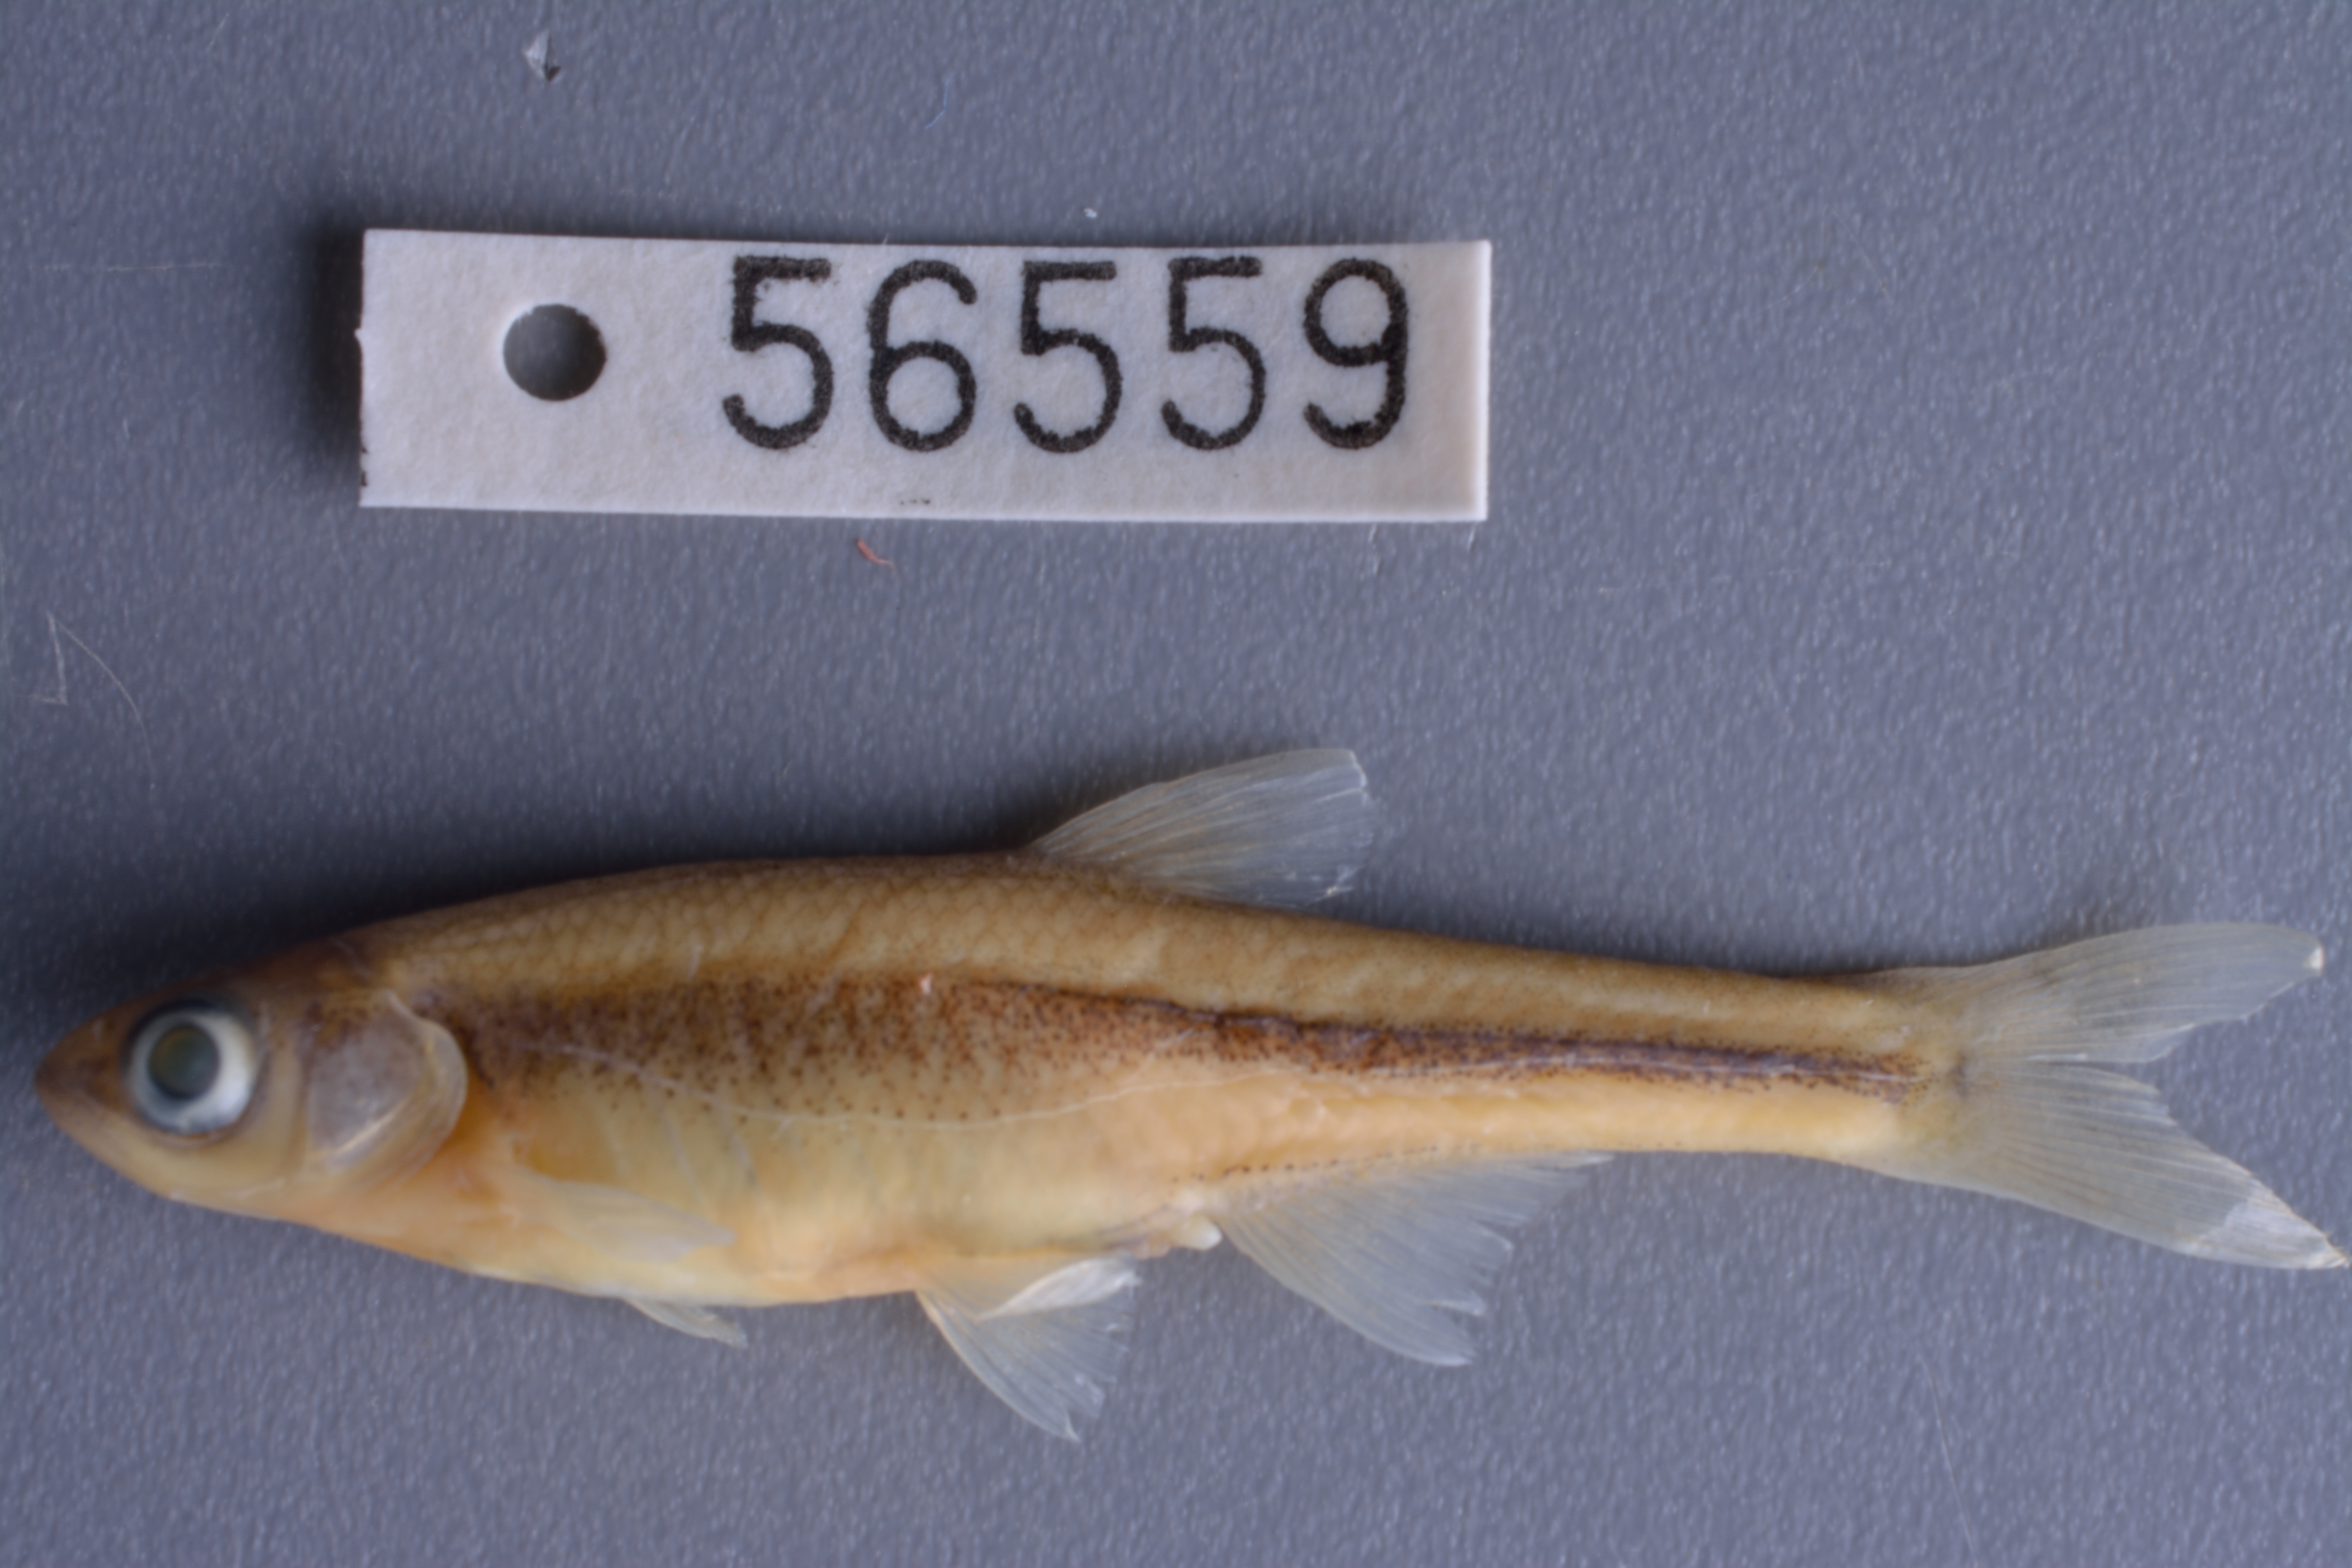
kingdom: Animalia
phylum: Chordata
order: Cypriniformes
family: Cyprinidae
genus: Lythrurus
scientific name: Lythrurus fumeus
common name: Ribbon shiner
